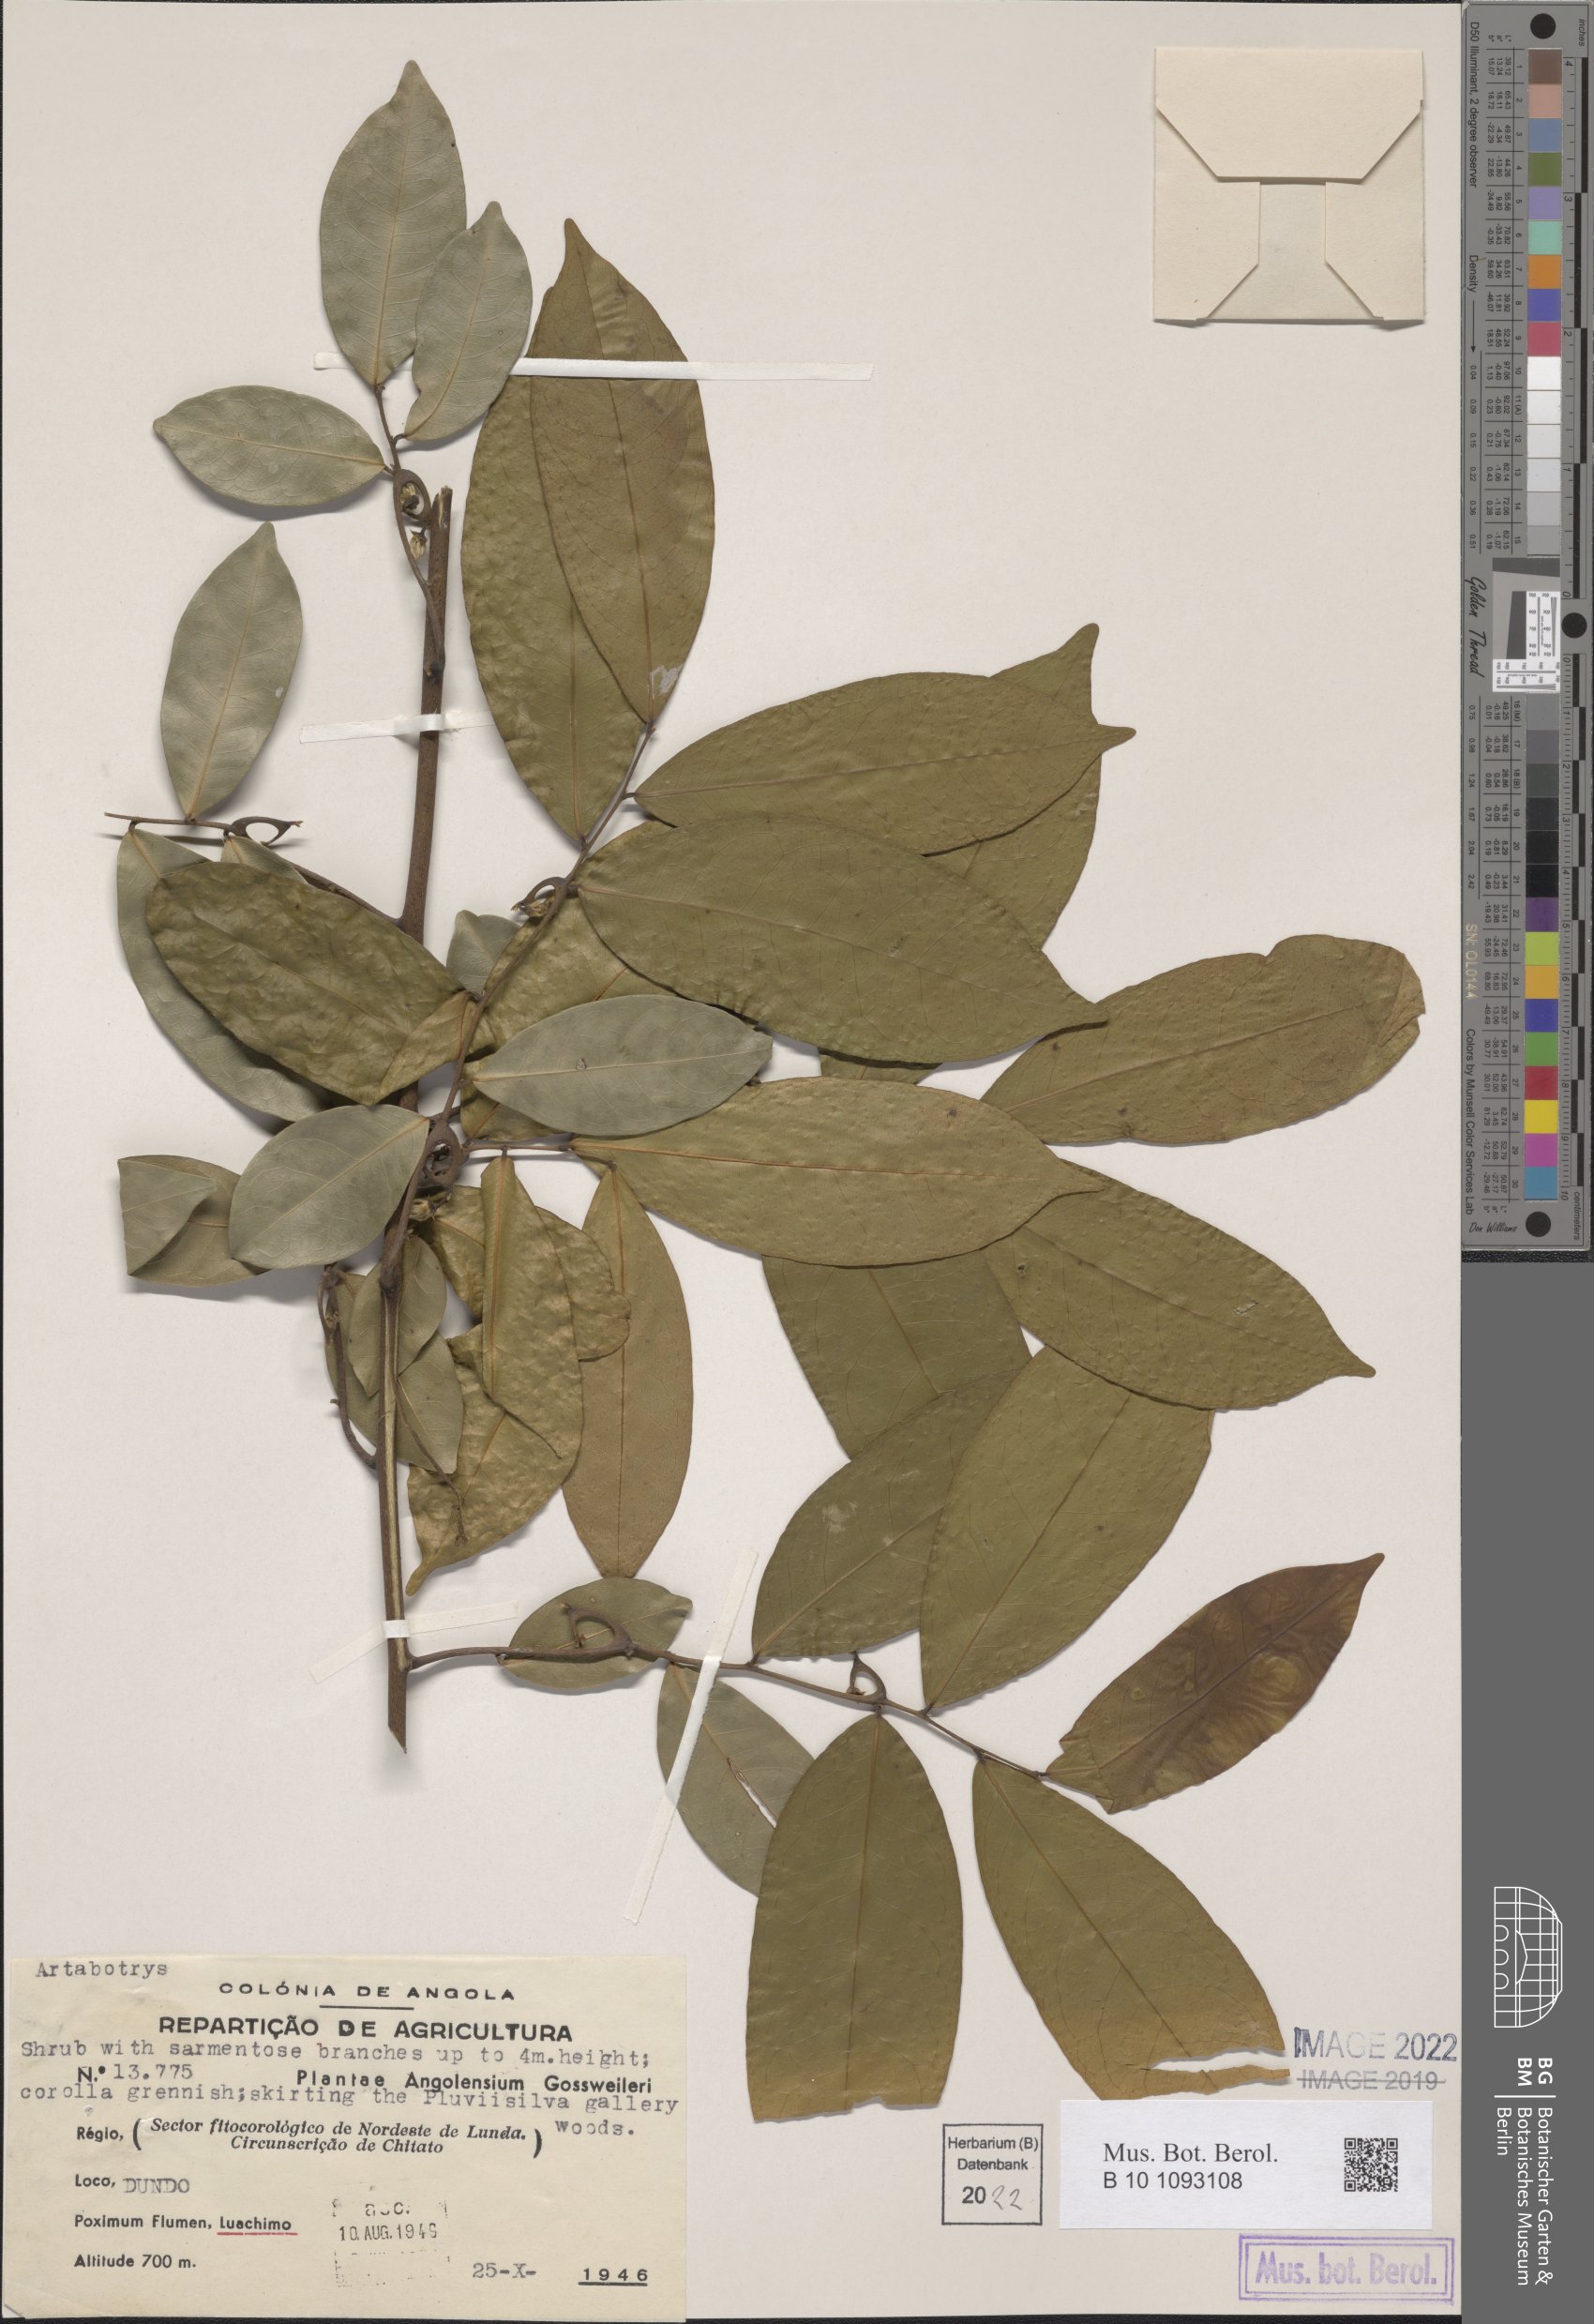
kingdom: Plantae
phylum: Tracheophyta
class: Magnoliopsida
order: Magnoliales
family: Annonaceae
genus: Artabotrys
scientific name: Artabotrys
